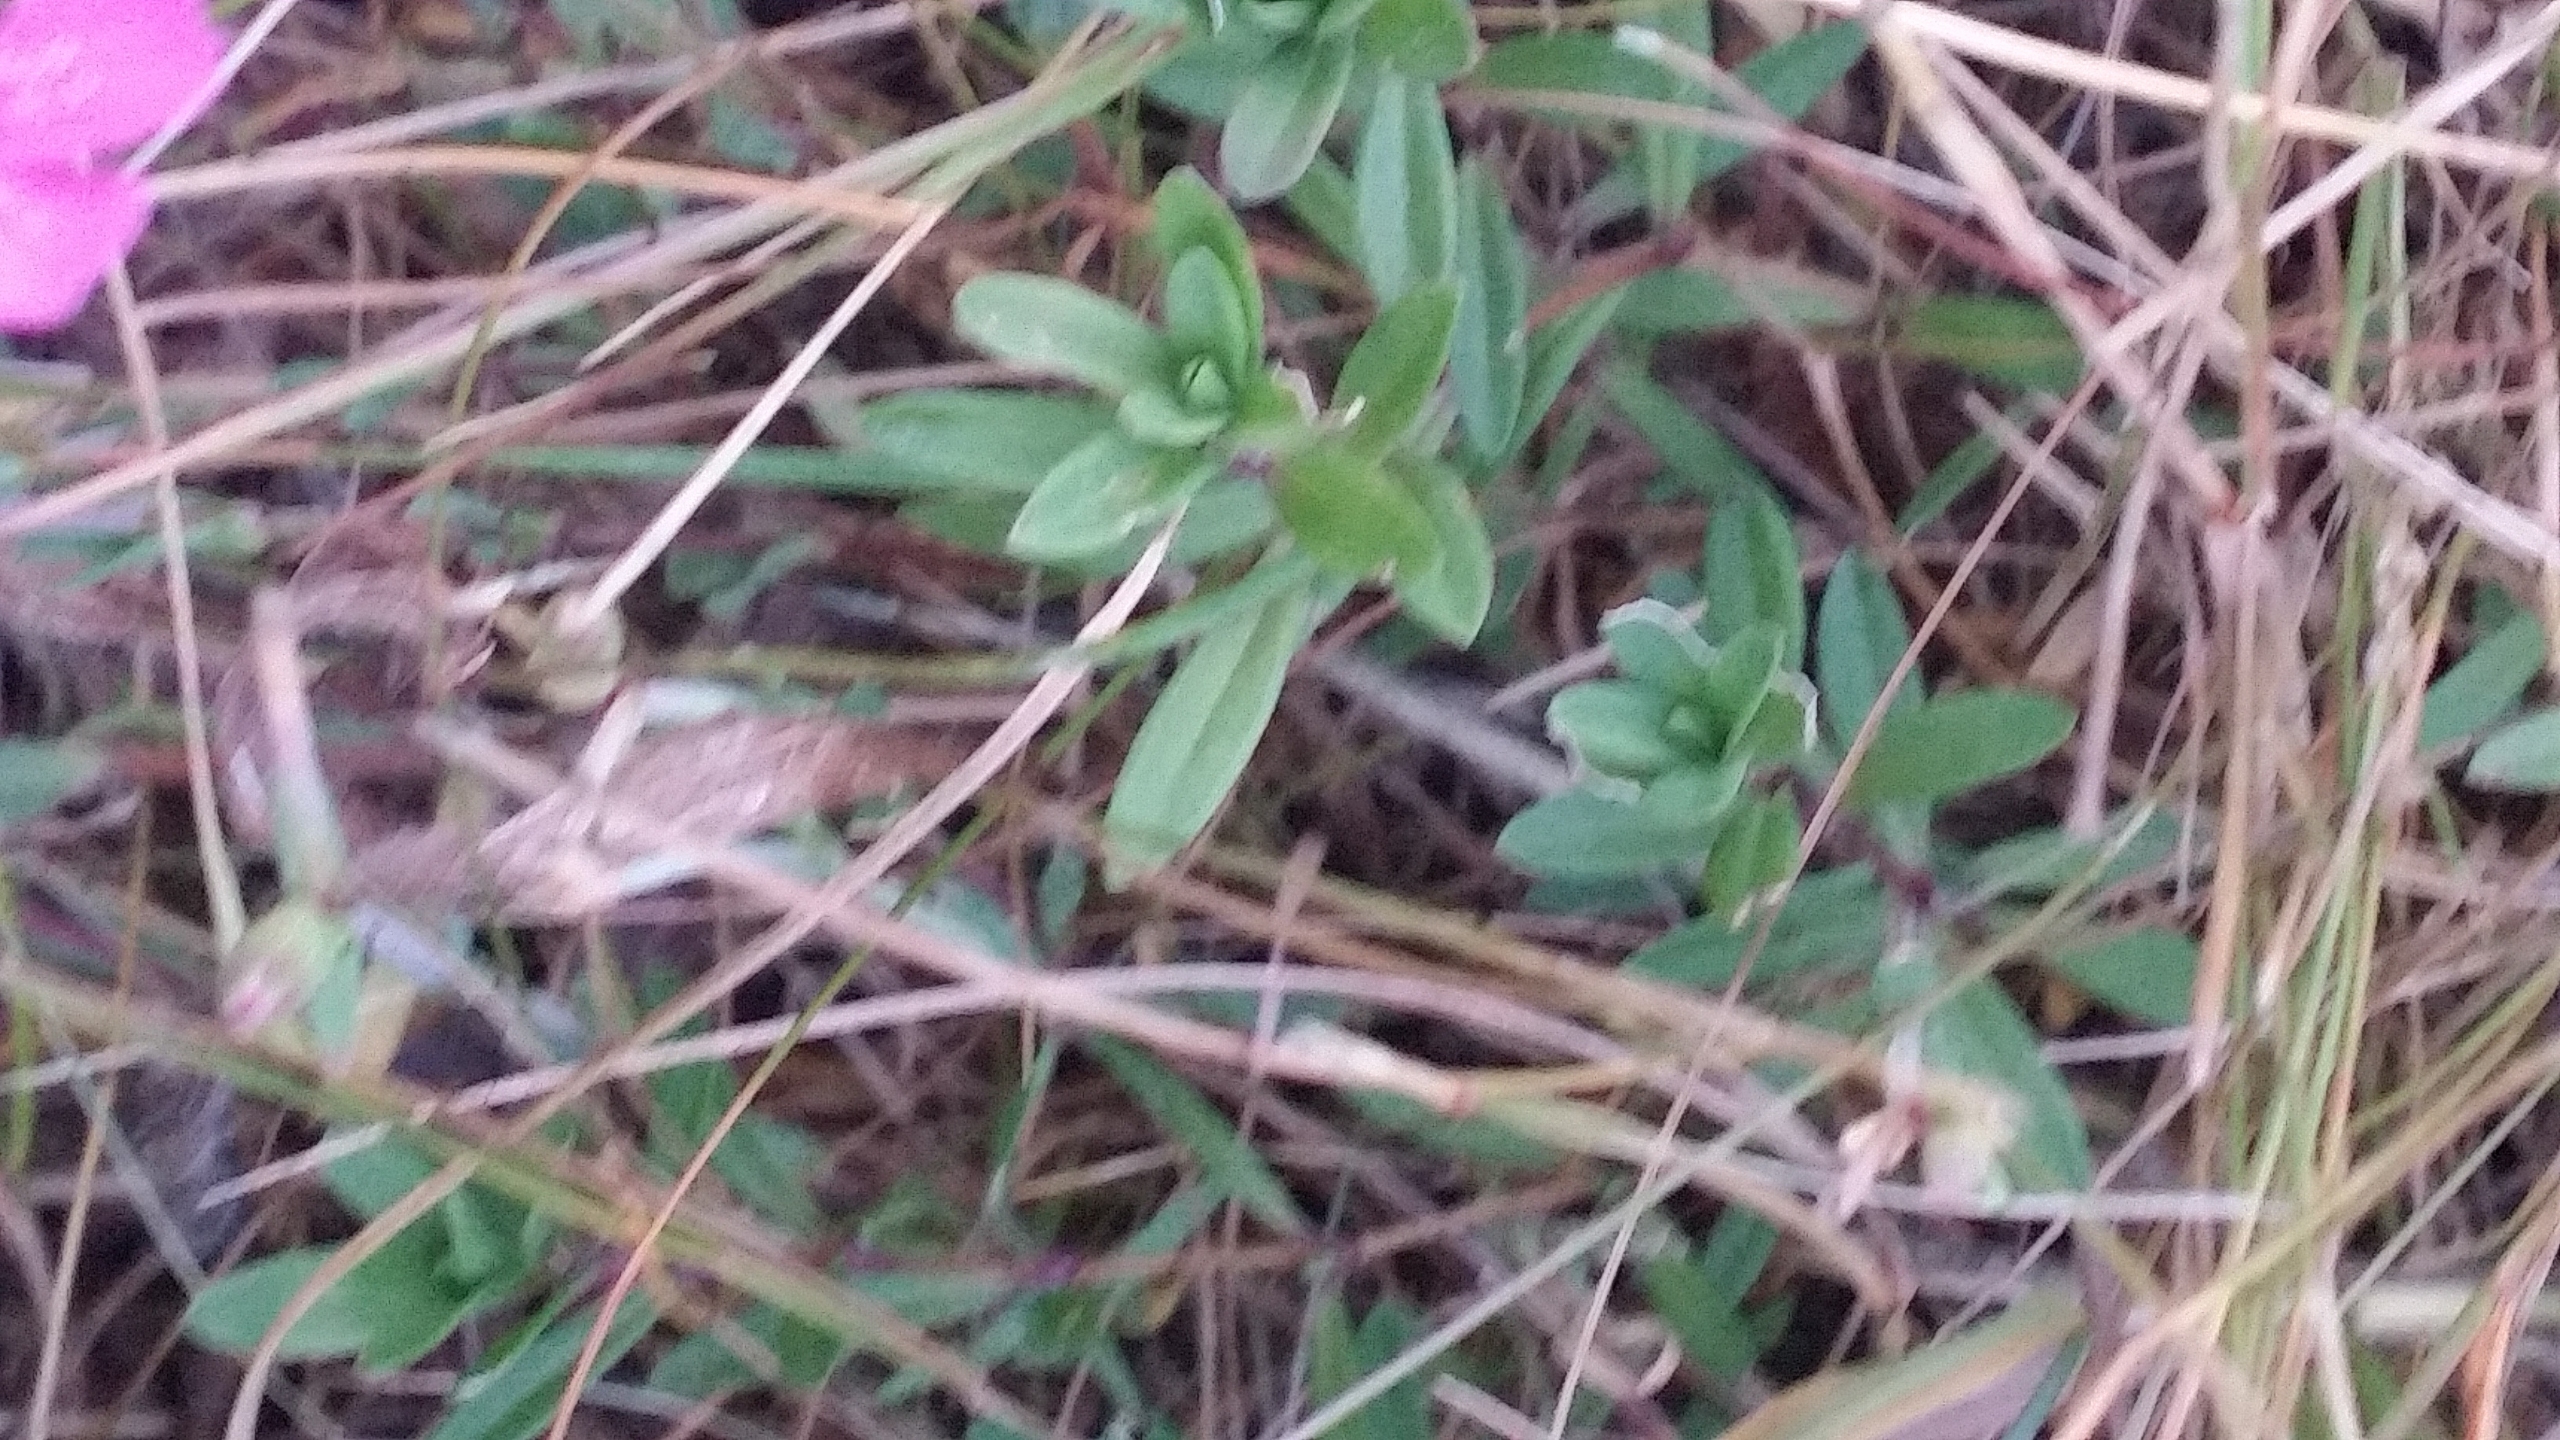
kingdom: Plantae
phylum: Tracheophyta
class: Magnoliopsida
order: Caryophyllales
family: Caryophyllaceae
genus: Dianthus
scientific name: Dianthus deltoides
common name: Bakke-nellike
